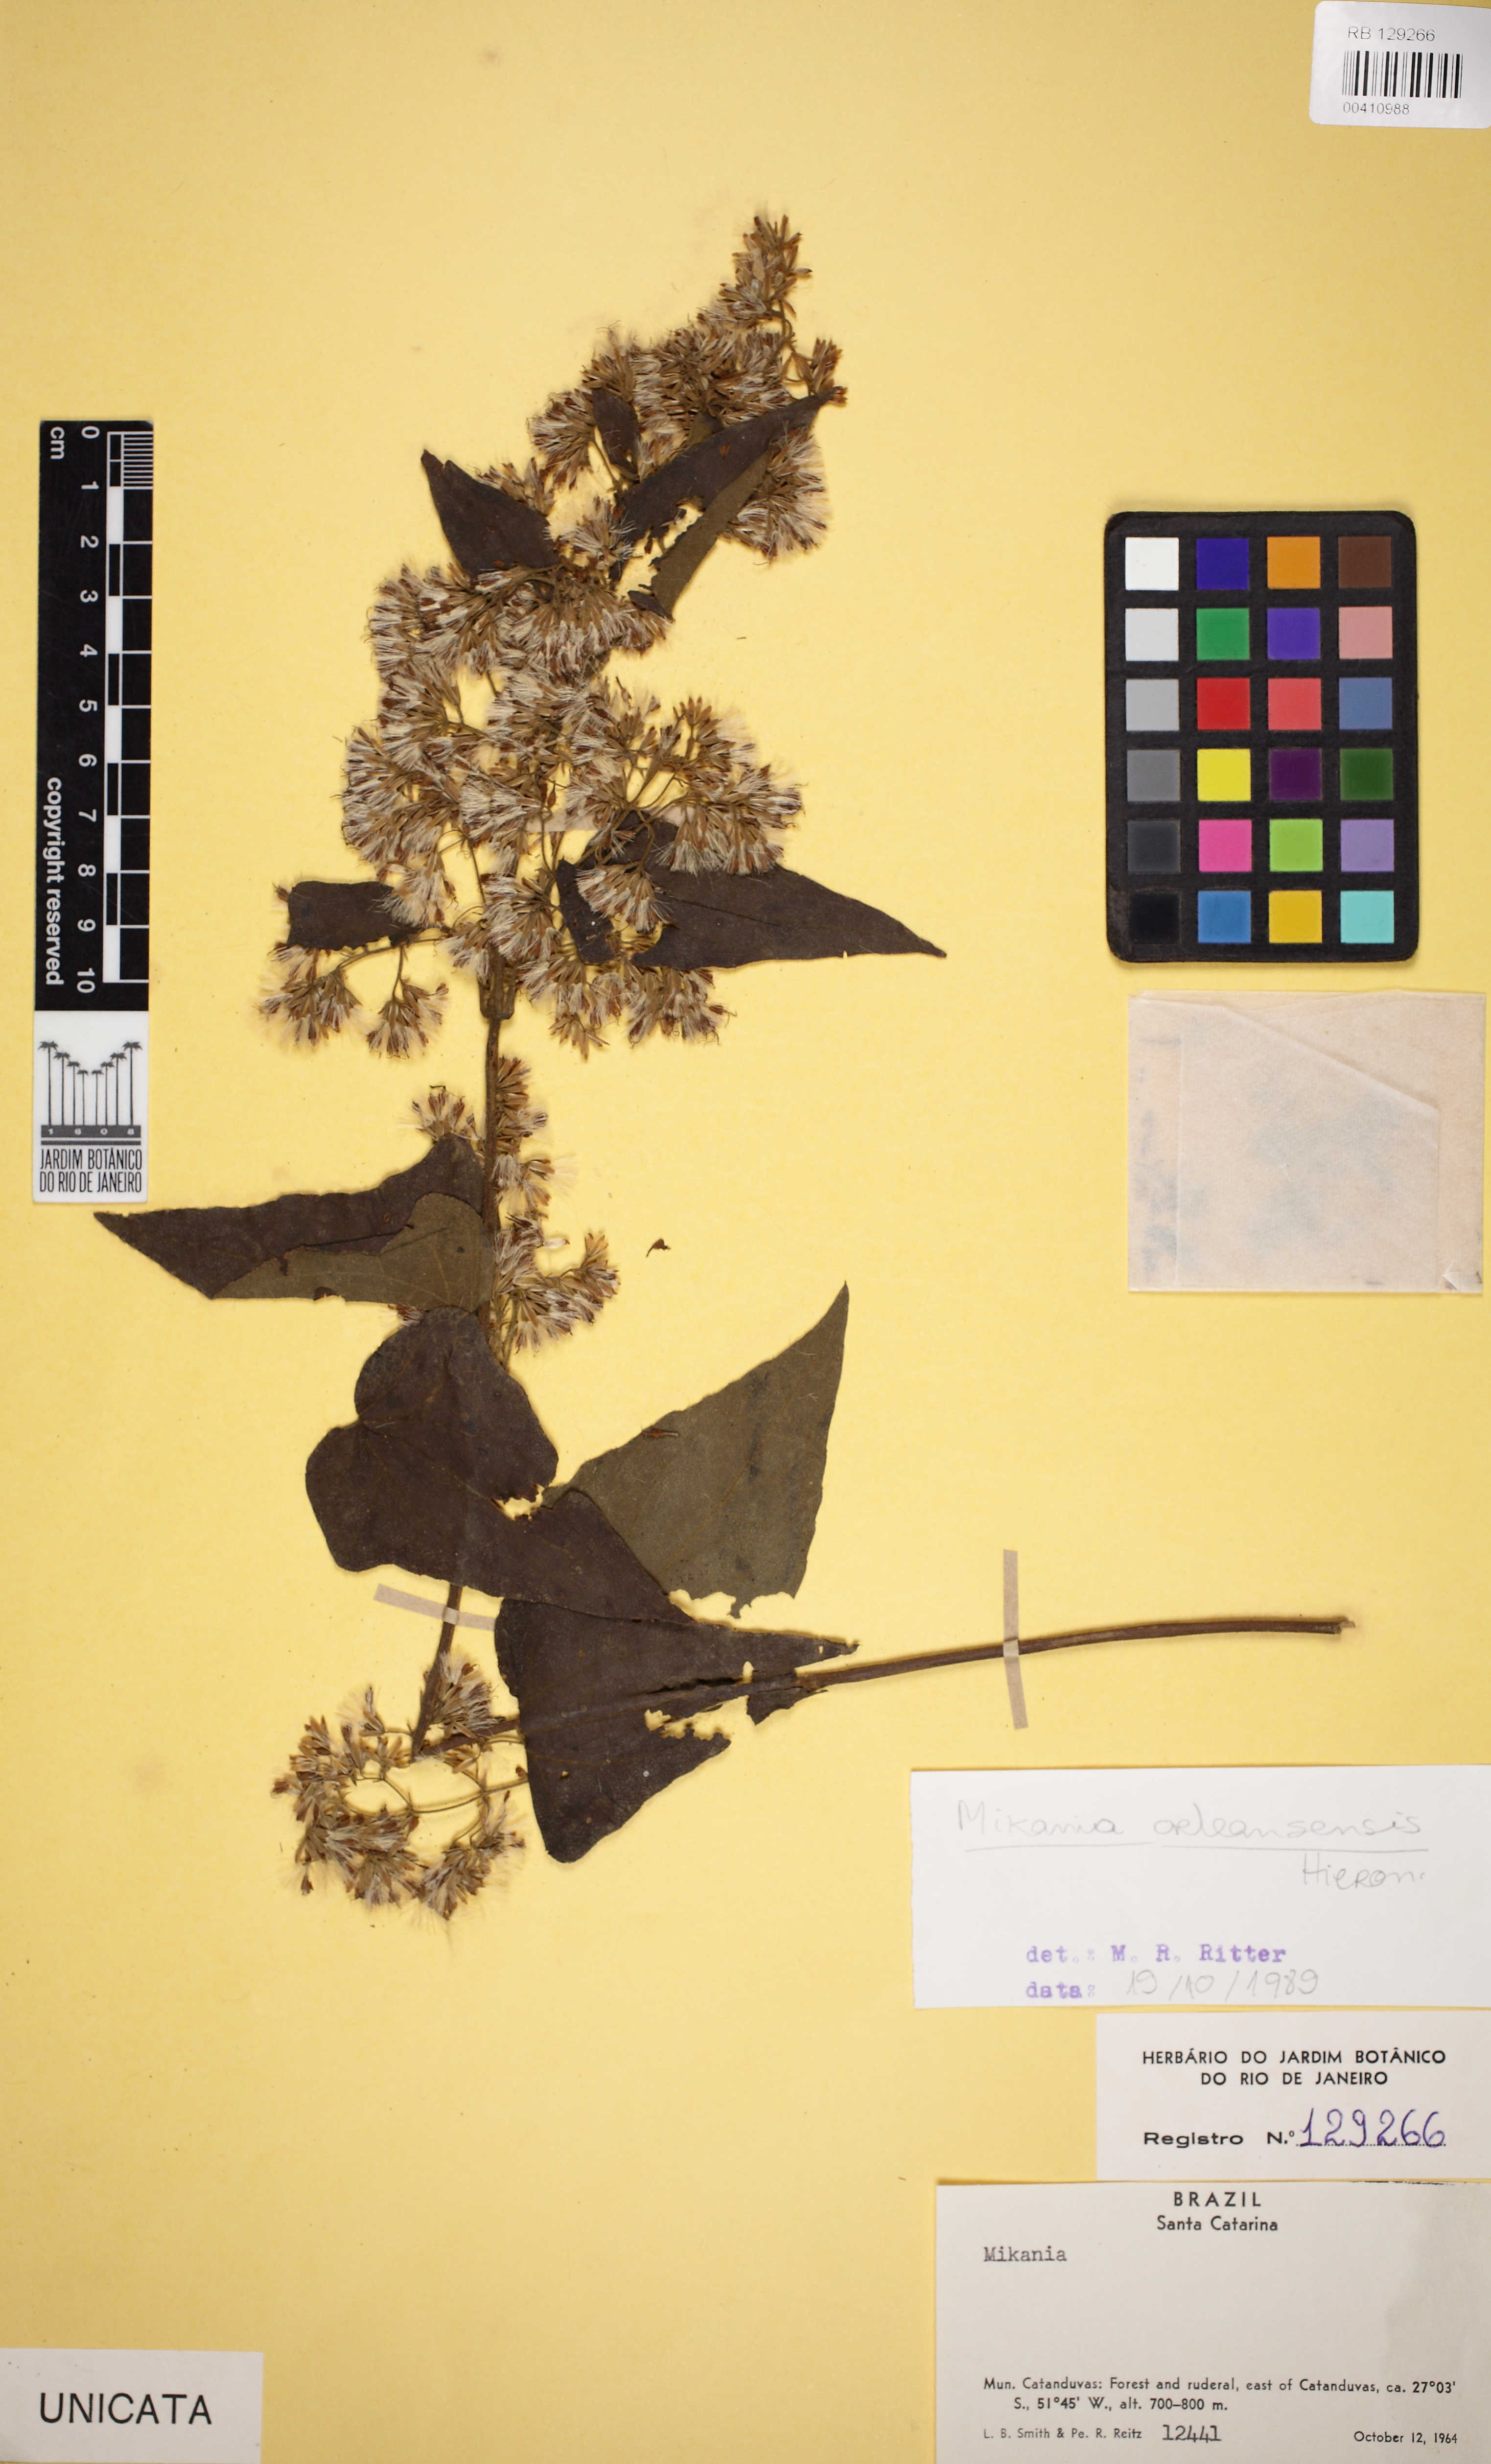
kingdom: Plantae
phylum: Tracheophyta
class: Magnoliopsida
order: Asterales
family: Asteraceae
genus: Mikania
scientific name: Mikania orleansensis
